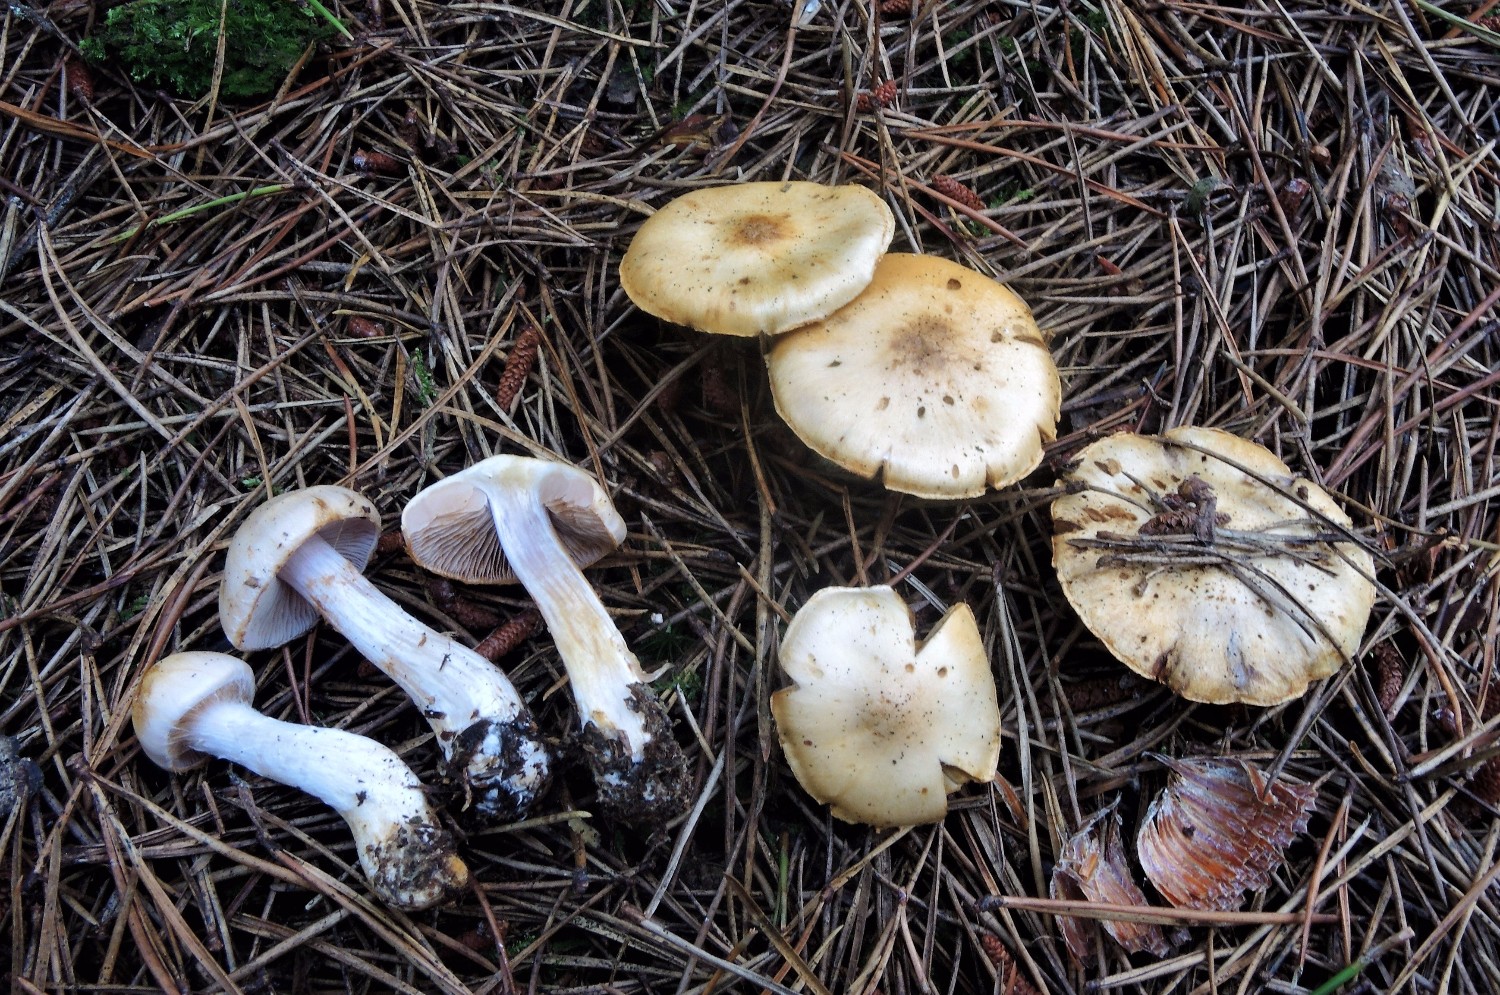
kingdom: Fungi
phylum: Basidiomycota
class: Agaricomycetes
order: Agaricales
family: Cortinariaceae
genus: Thaxterogaster
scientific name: Thaxterogaster leucophanes
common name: fløde-slørhat
